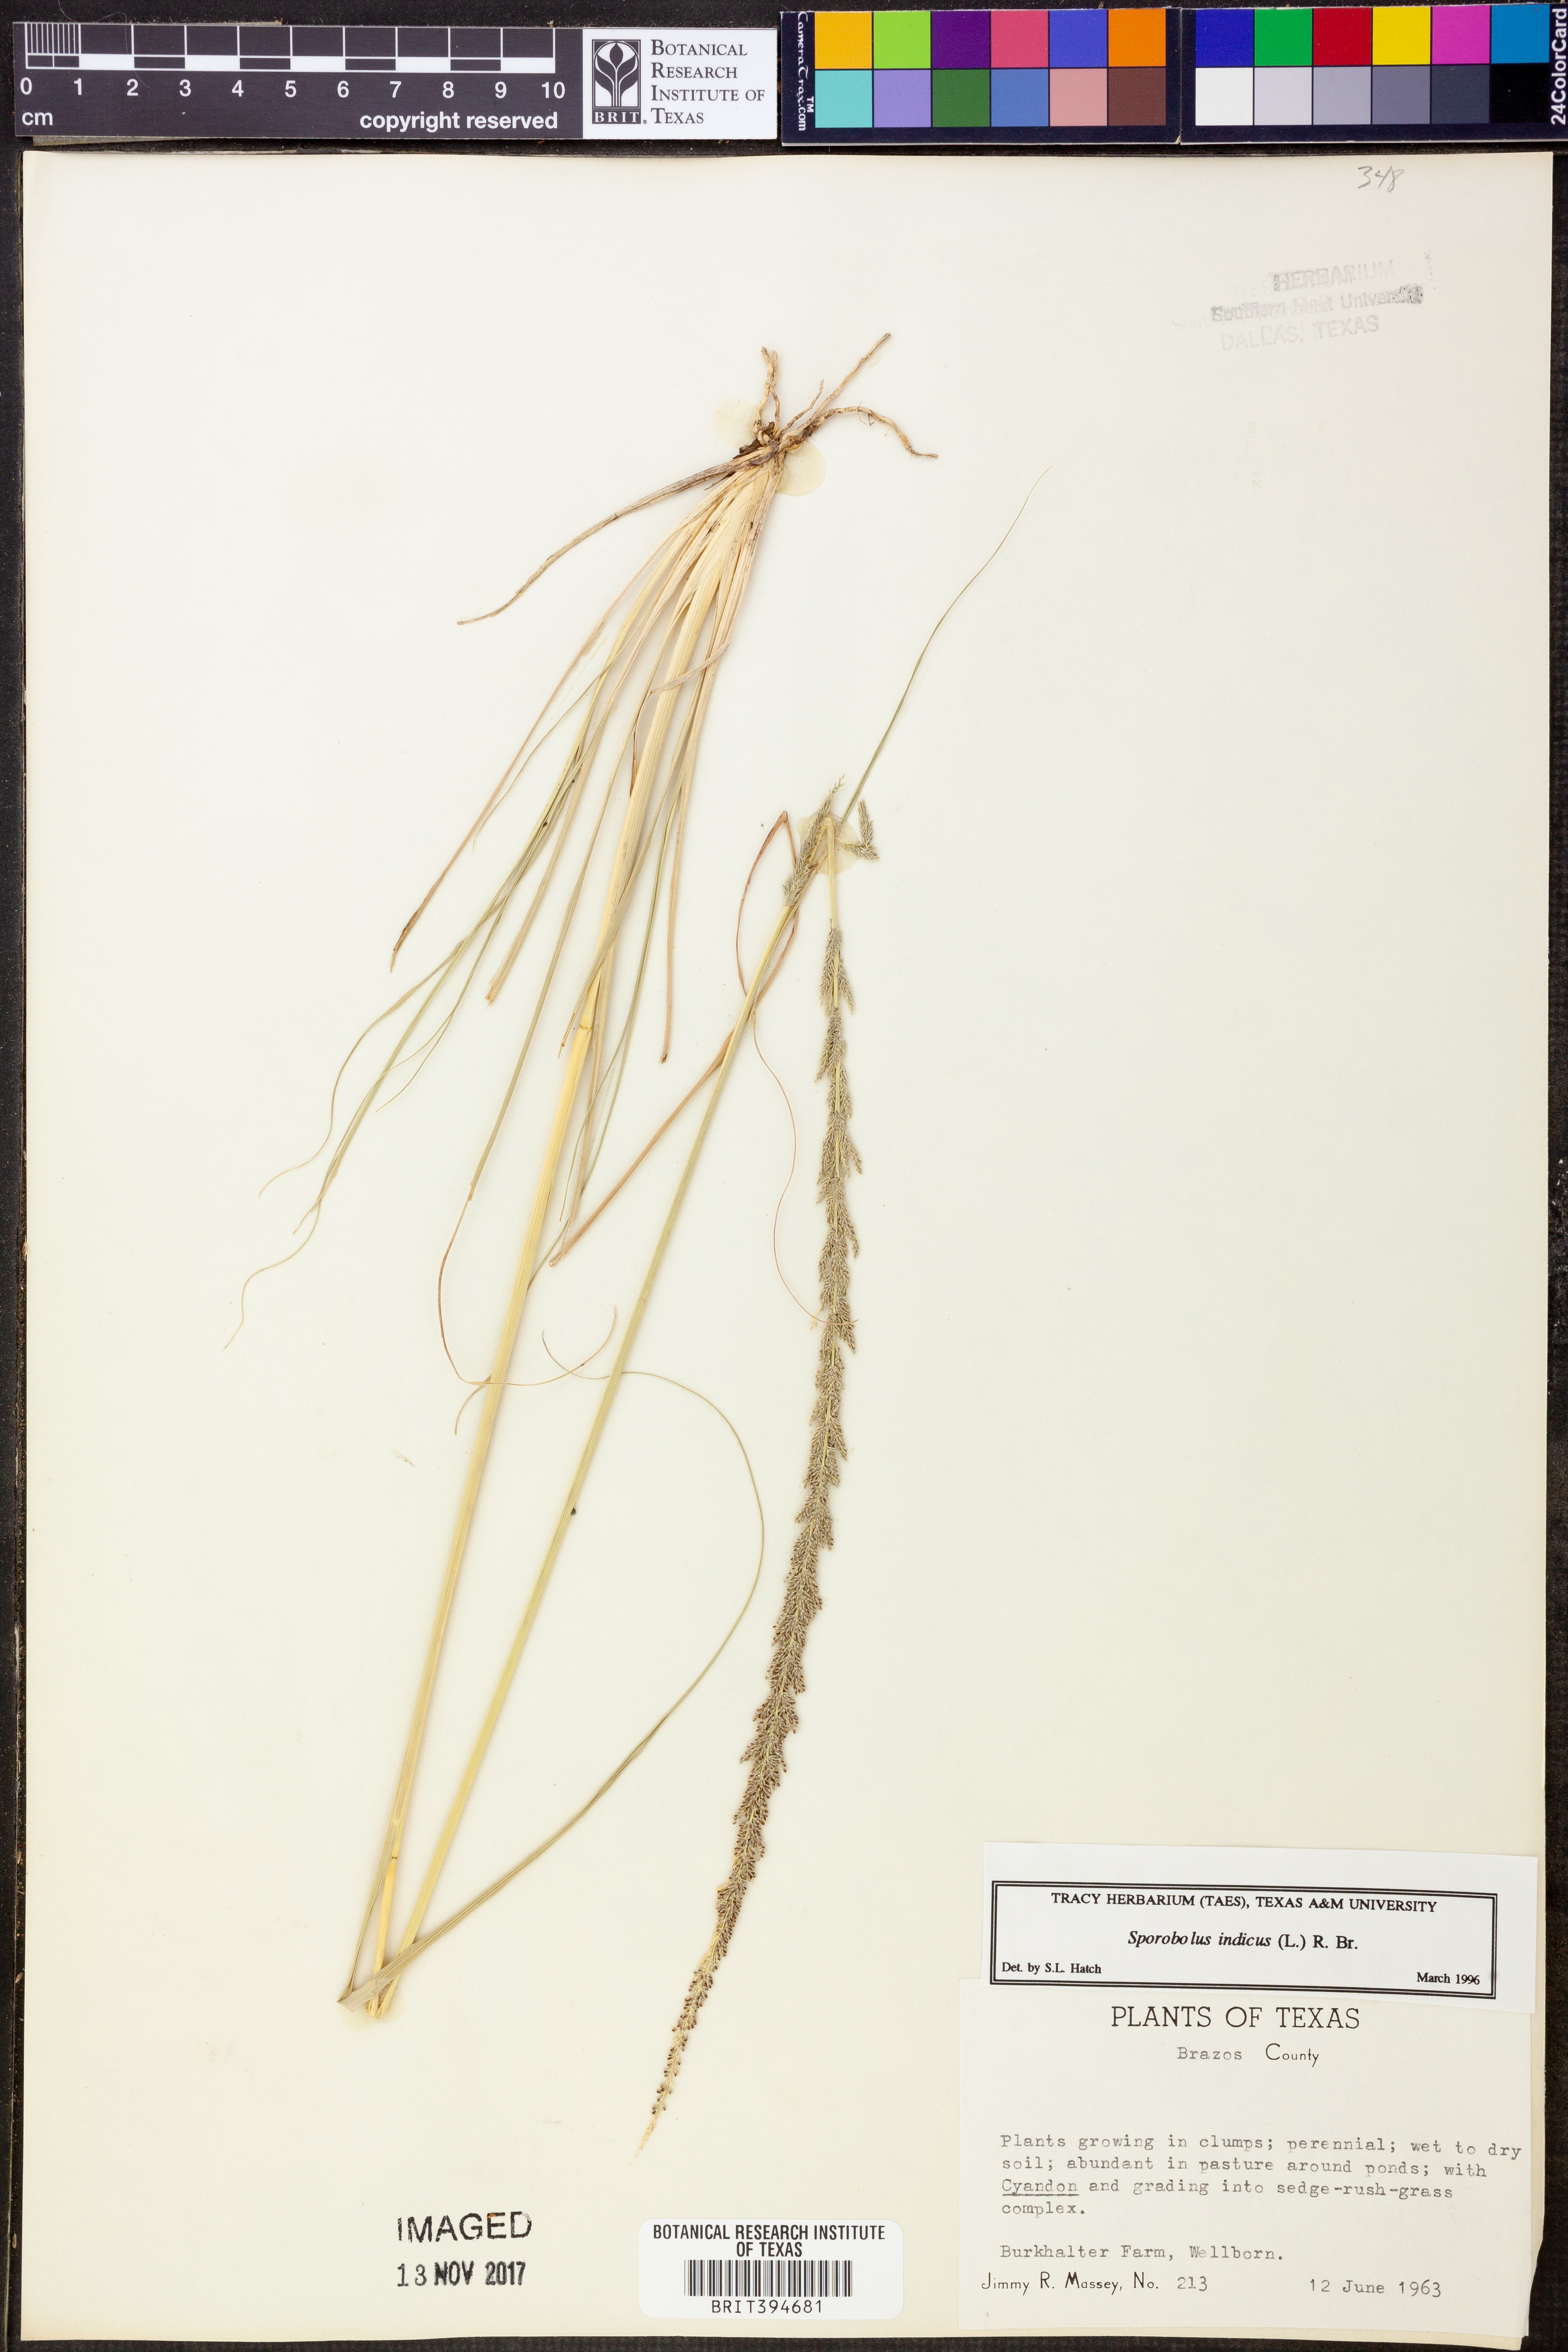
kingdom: Plantae
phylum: Tracheophyta
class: Liliopsida
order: Poales
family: Poaceae
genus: Sporobolus
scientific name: Sporobolus indicus
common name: Smut grass
